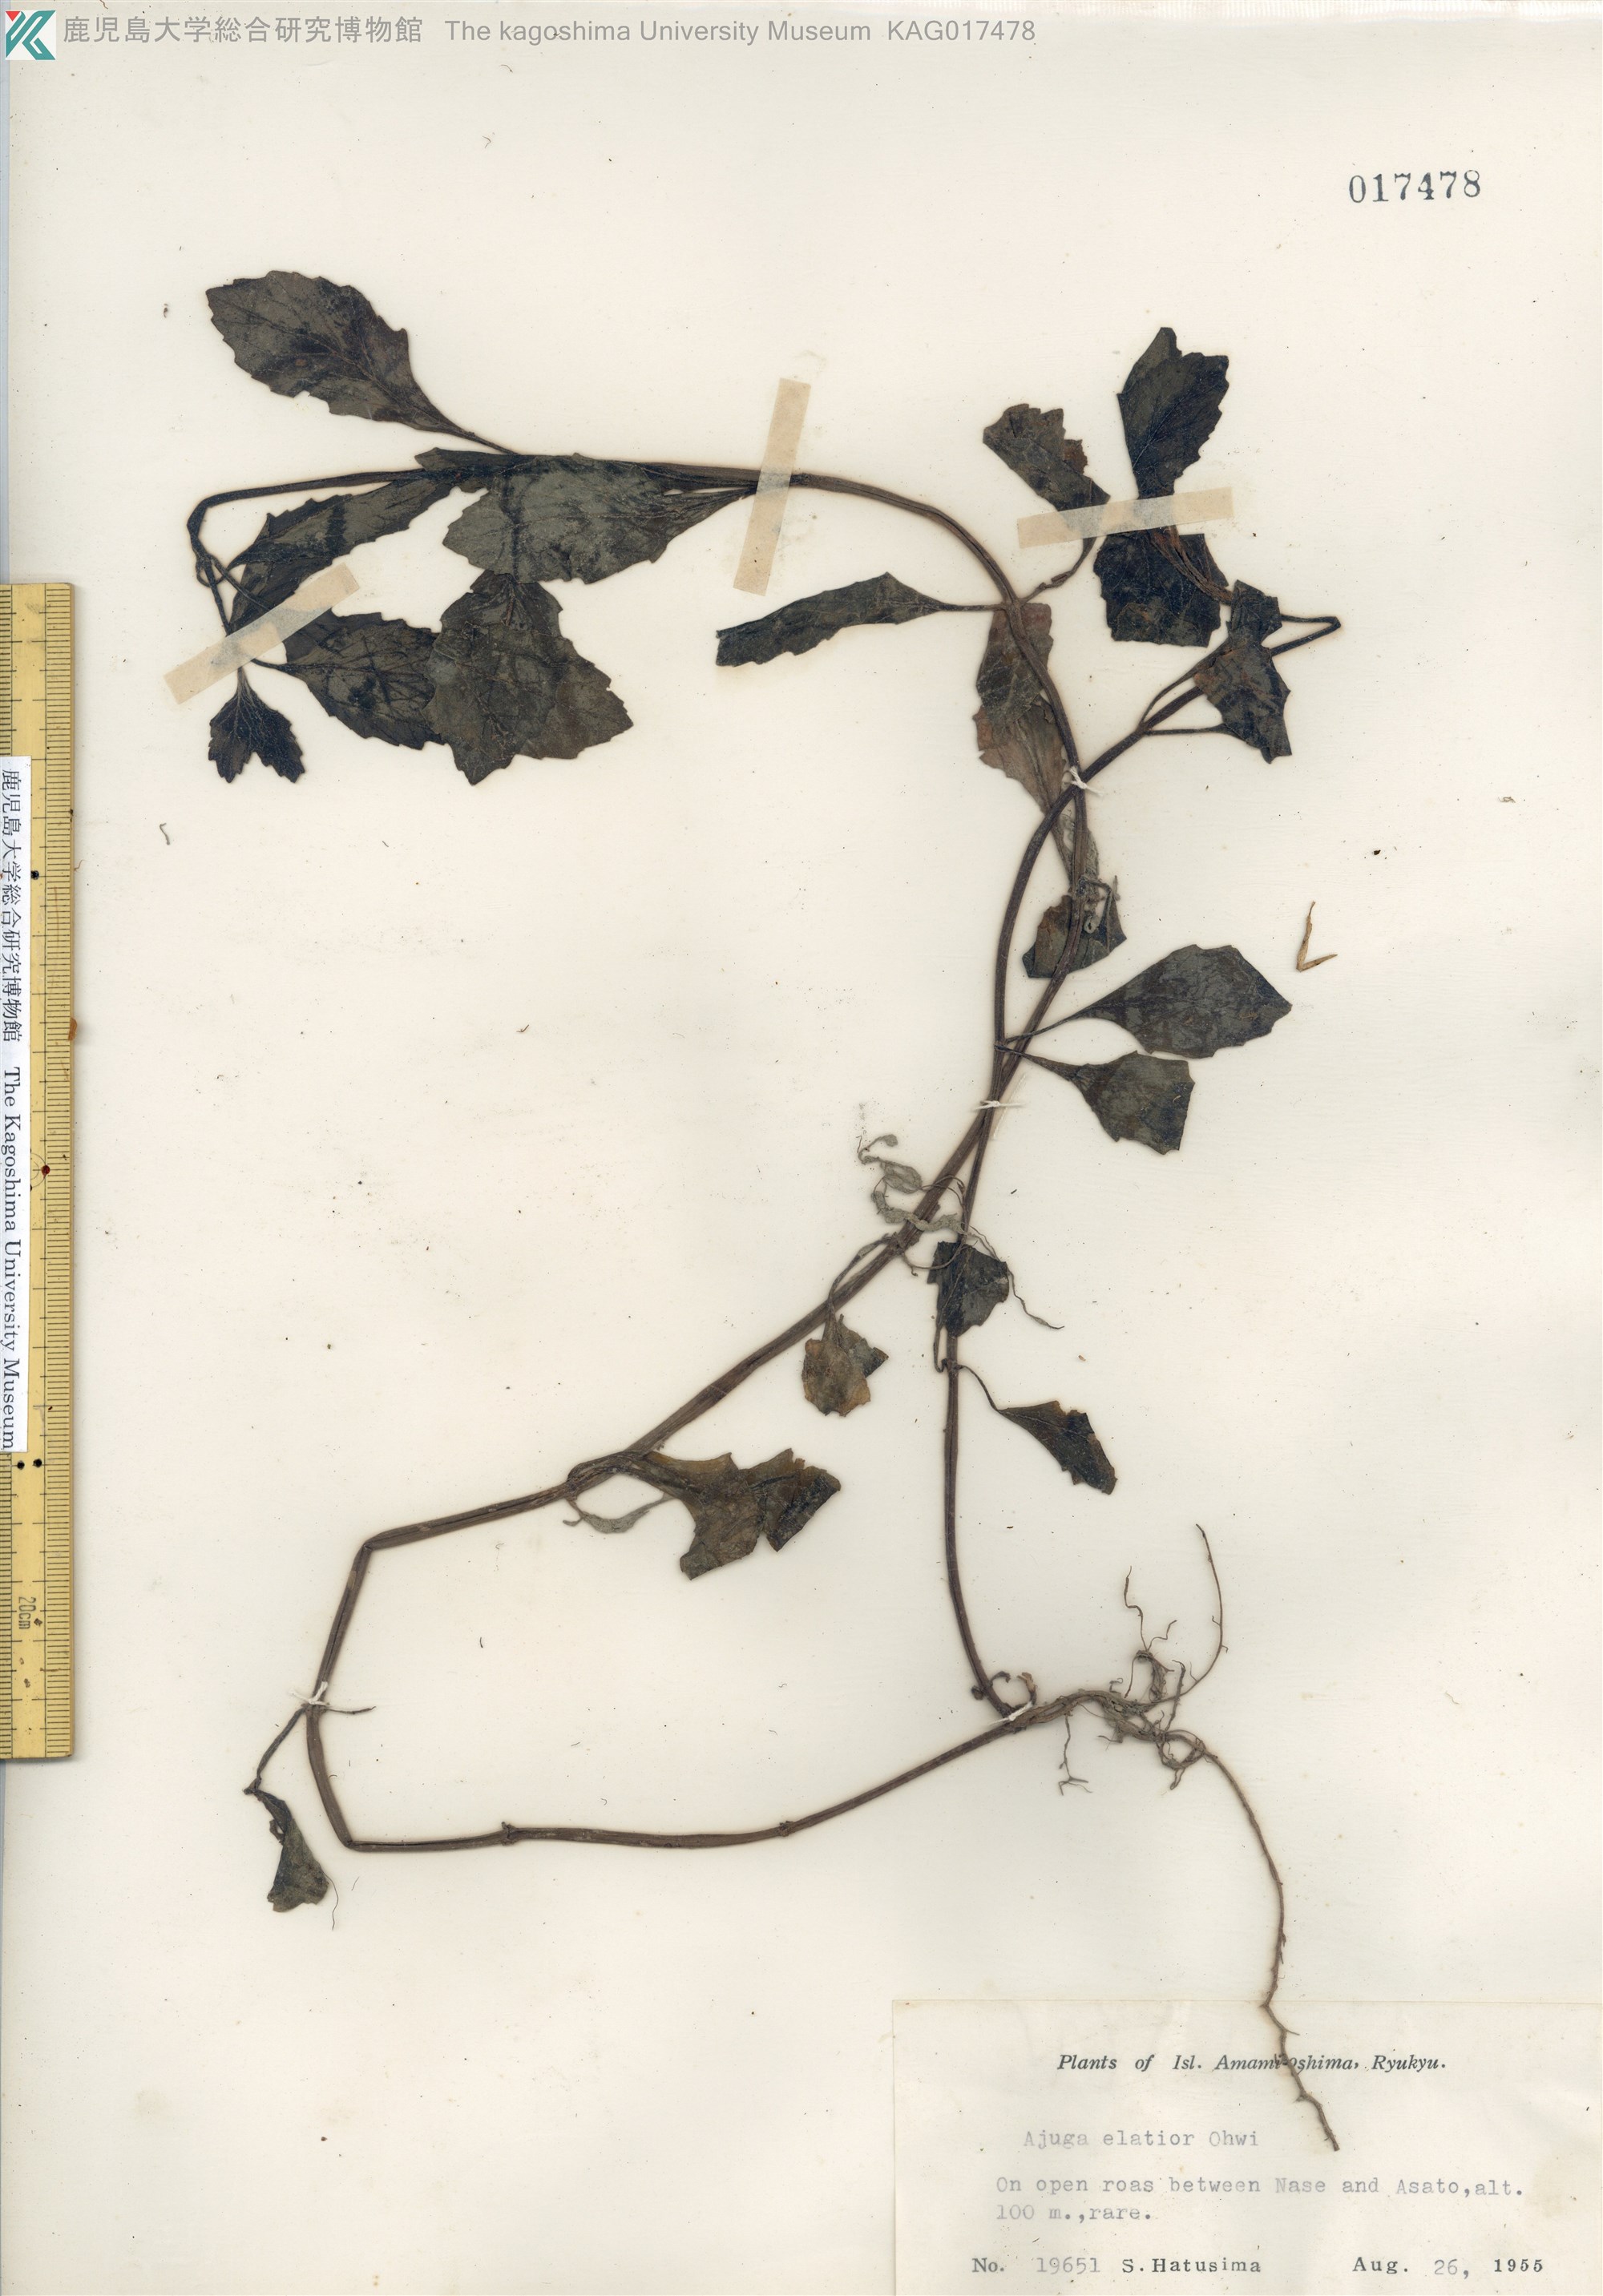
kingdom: Plantae
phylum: Tracheophyta
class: Magnoliopsida
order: Lamiales
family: Lamiaceae
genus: Ajuga
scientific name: Ajuga dictyocarpa
